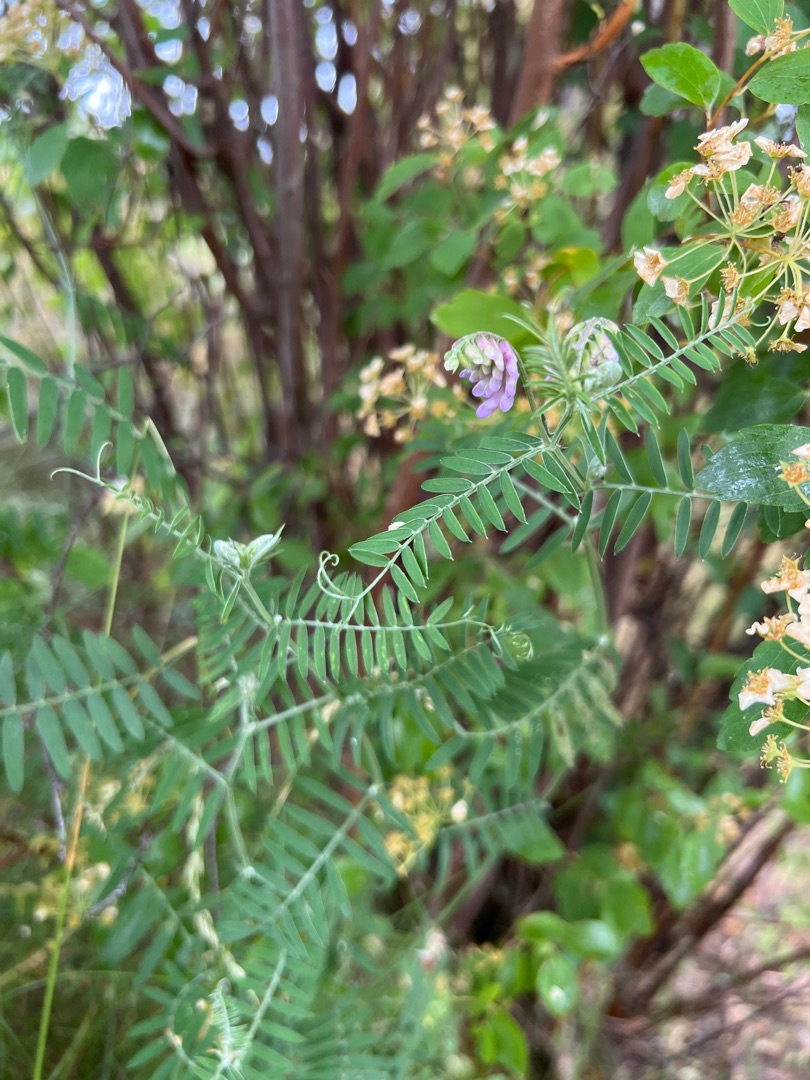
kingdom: Plantae
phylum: Tracheophyta
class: Magnoliopsida
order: Fabales
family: Fabaceae
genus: Vicia
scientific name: Vicia cracca
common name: Muse-vikke
